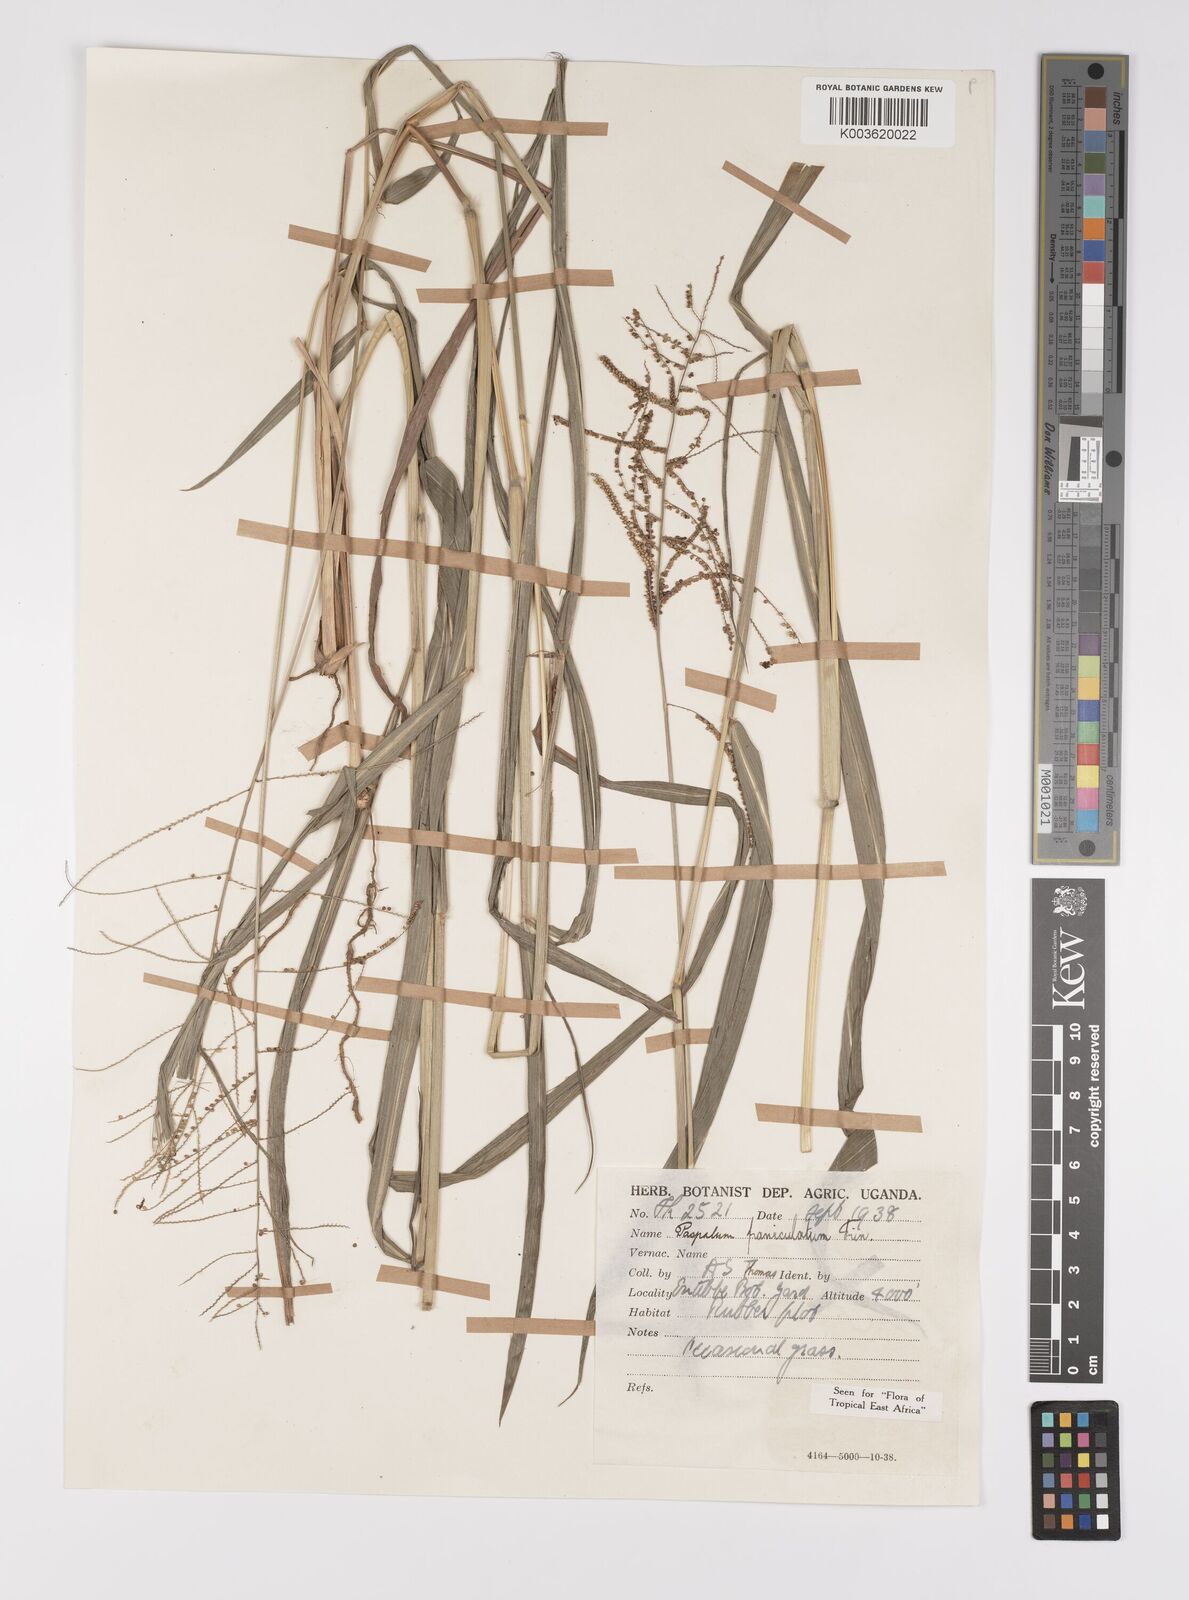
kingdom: Plantae
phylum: Tracheophyta
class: Liliopsida
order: Poales
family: Poaceae
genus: Paspalum
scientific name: Paspalum paniculatum
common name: Arrocillo
